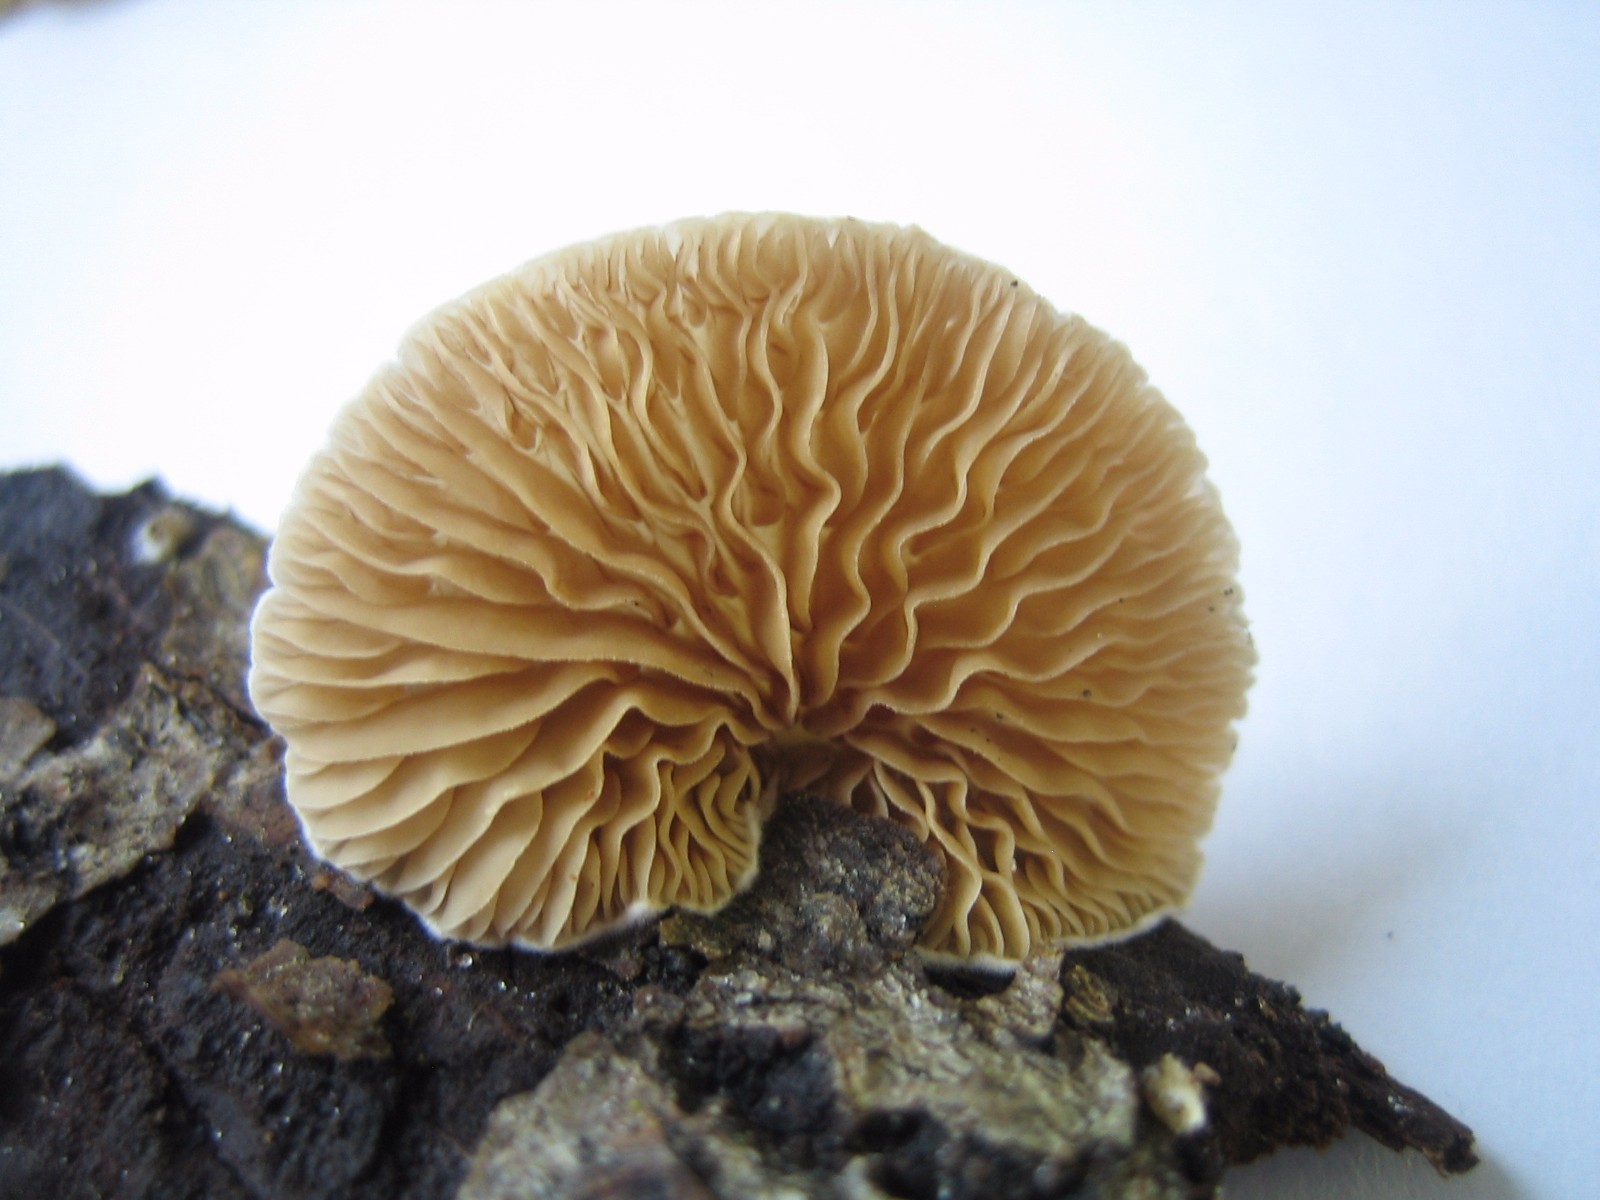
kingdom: Fungi
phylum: Basidiomycota
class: Agaricomycetes
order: Agaricales
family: Crepidotaceae
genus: Crepidotus
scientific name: Crepidotus
